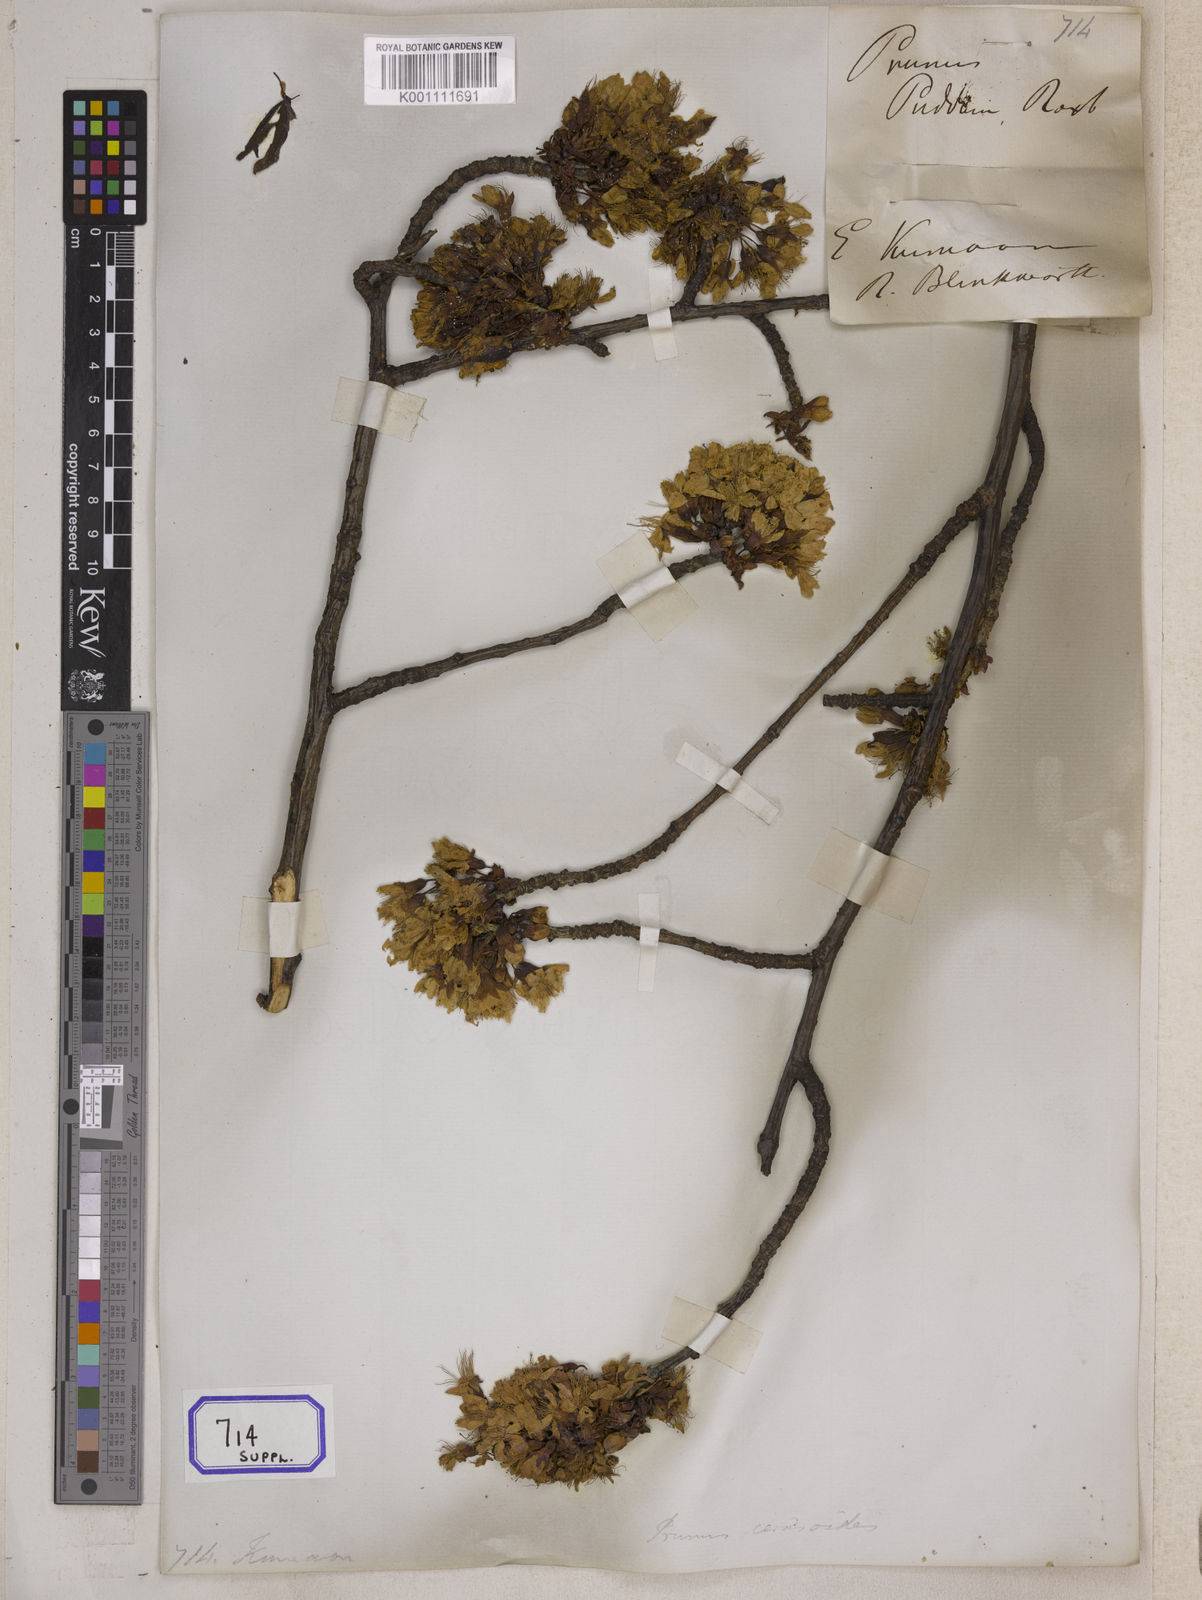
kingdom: Plantae
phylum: Tracheophyta
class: Magnoliopsida
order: Rosales
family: Rosaceae
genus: Prunus
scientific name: Prunus Cerasus myrtifolia
